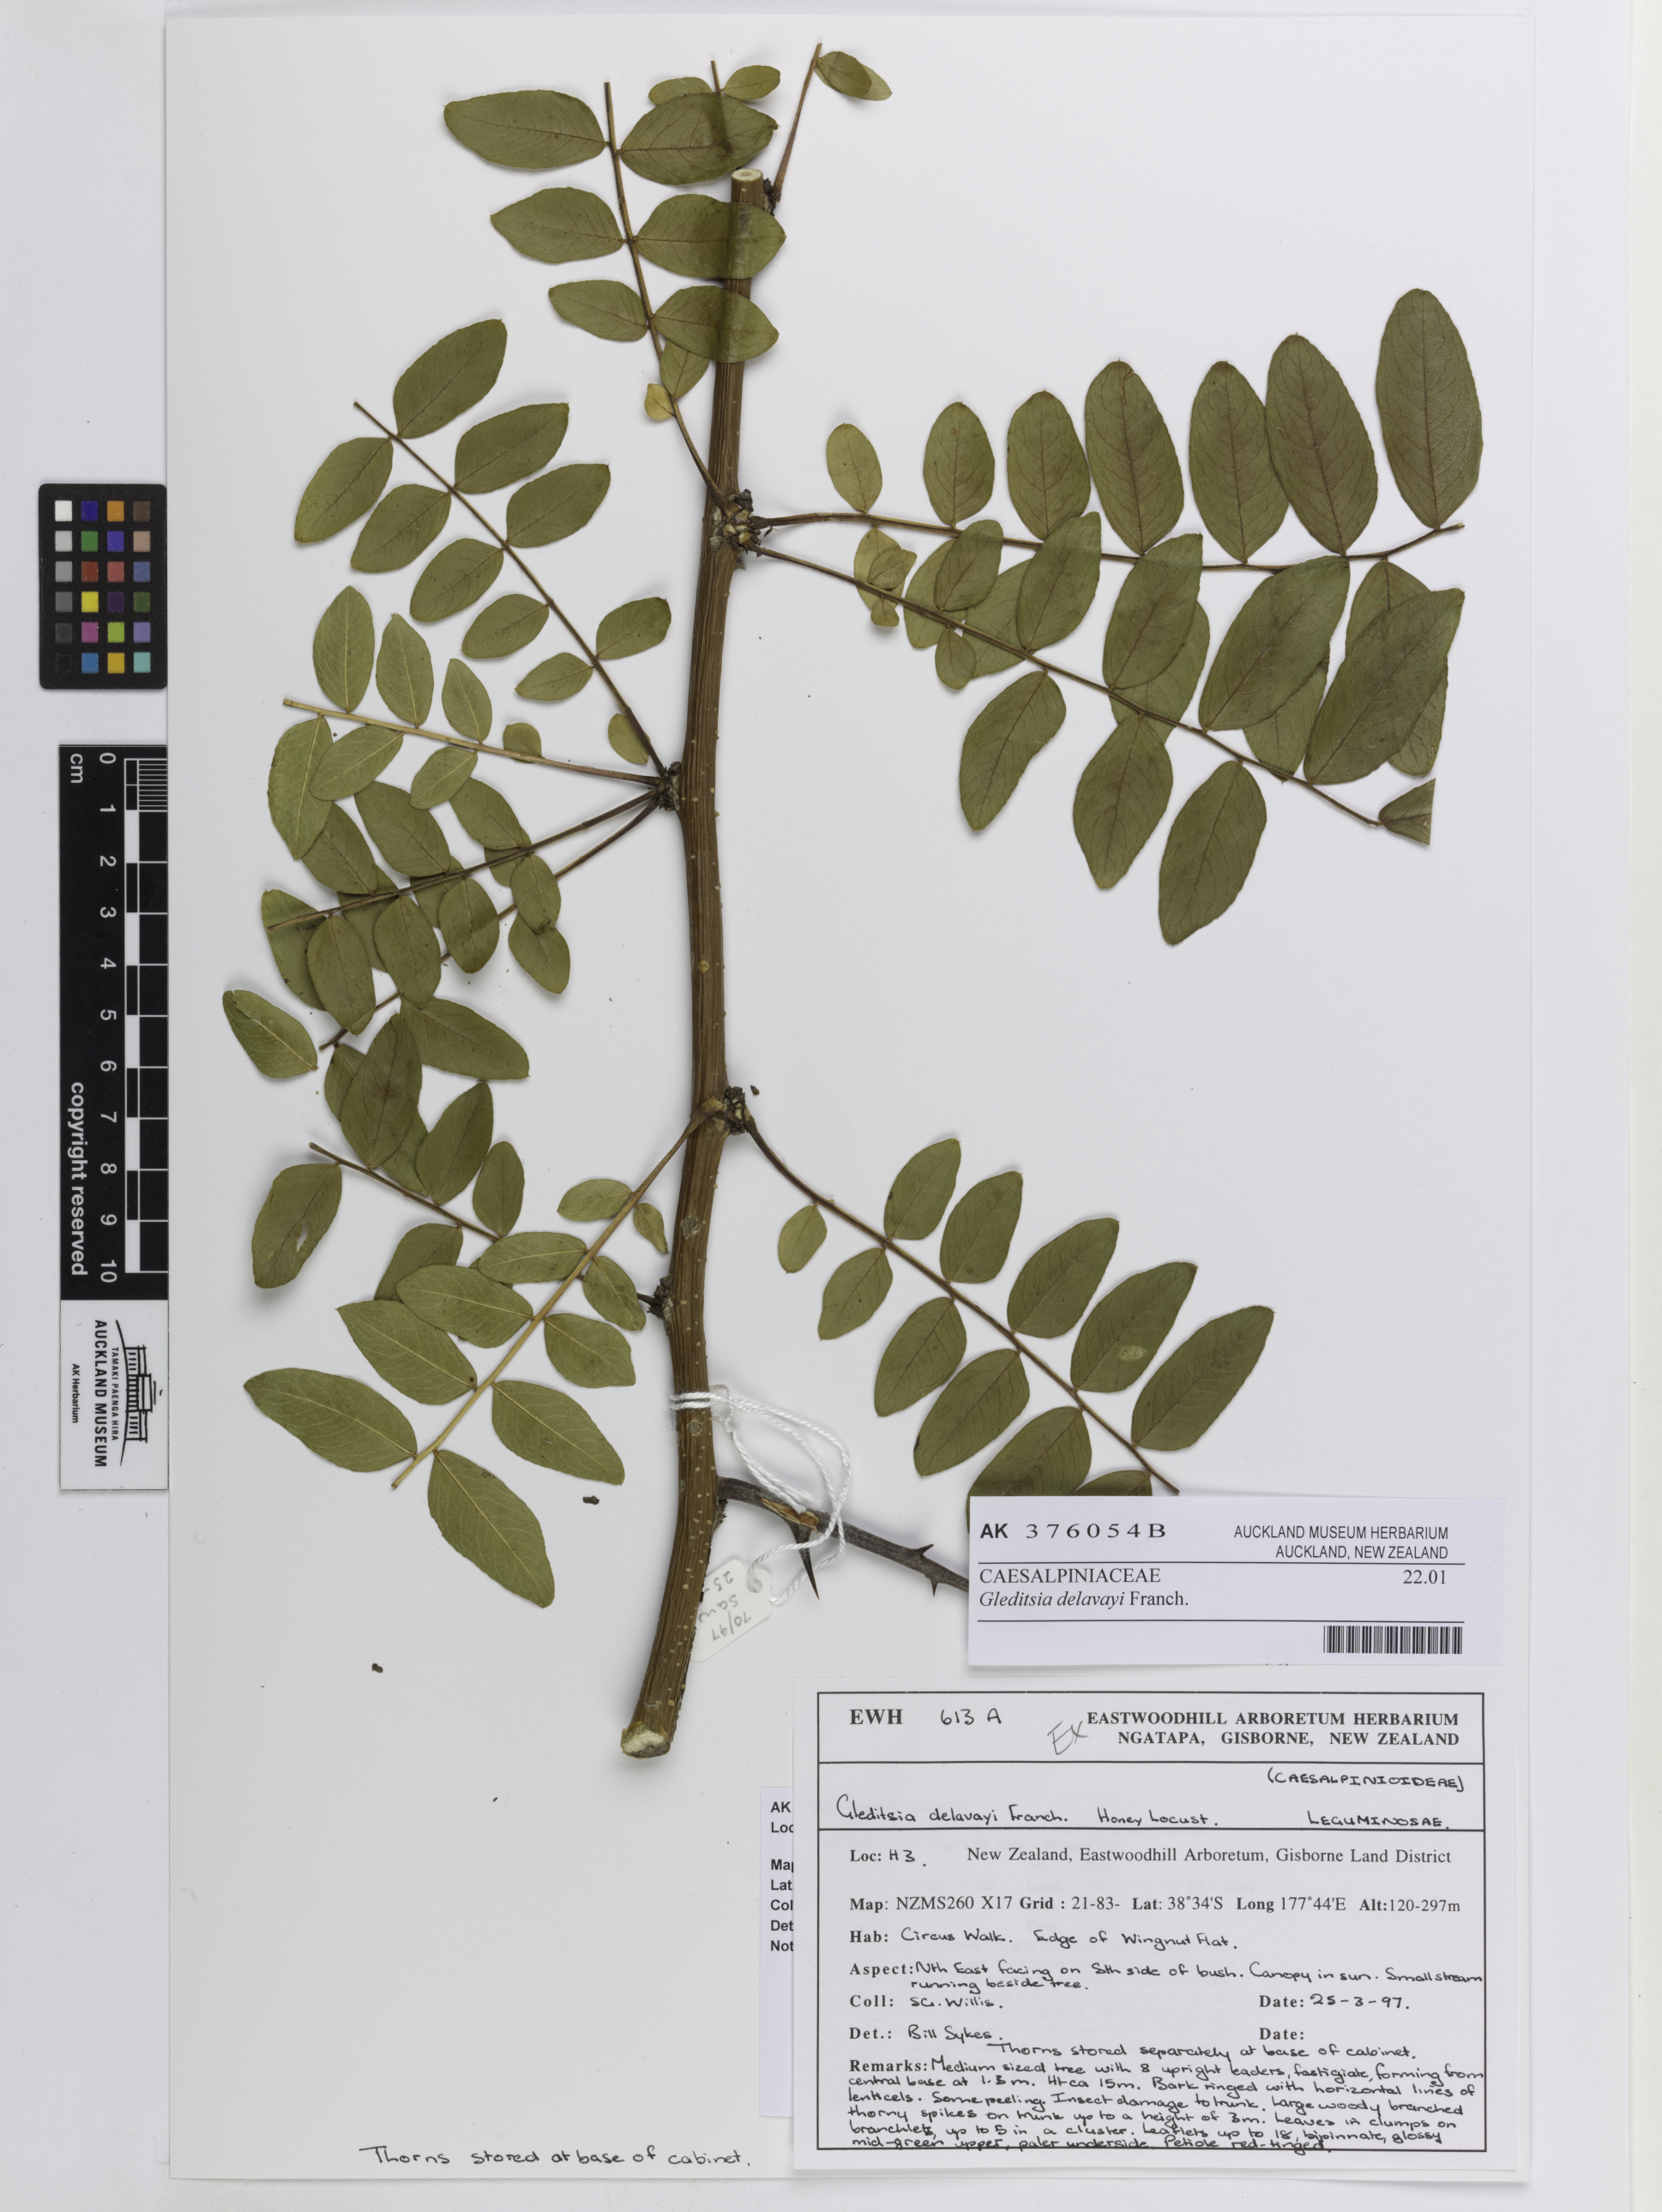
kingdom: Plantae
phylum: Tracheophyta
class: Magnoliopsida
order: Fabales
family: Fabaceae
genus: Gleditsia
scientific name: Gleditsia japonica
